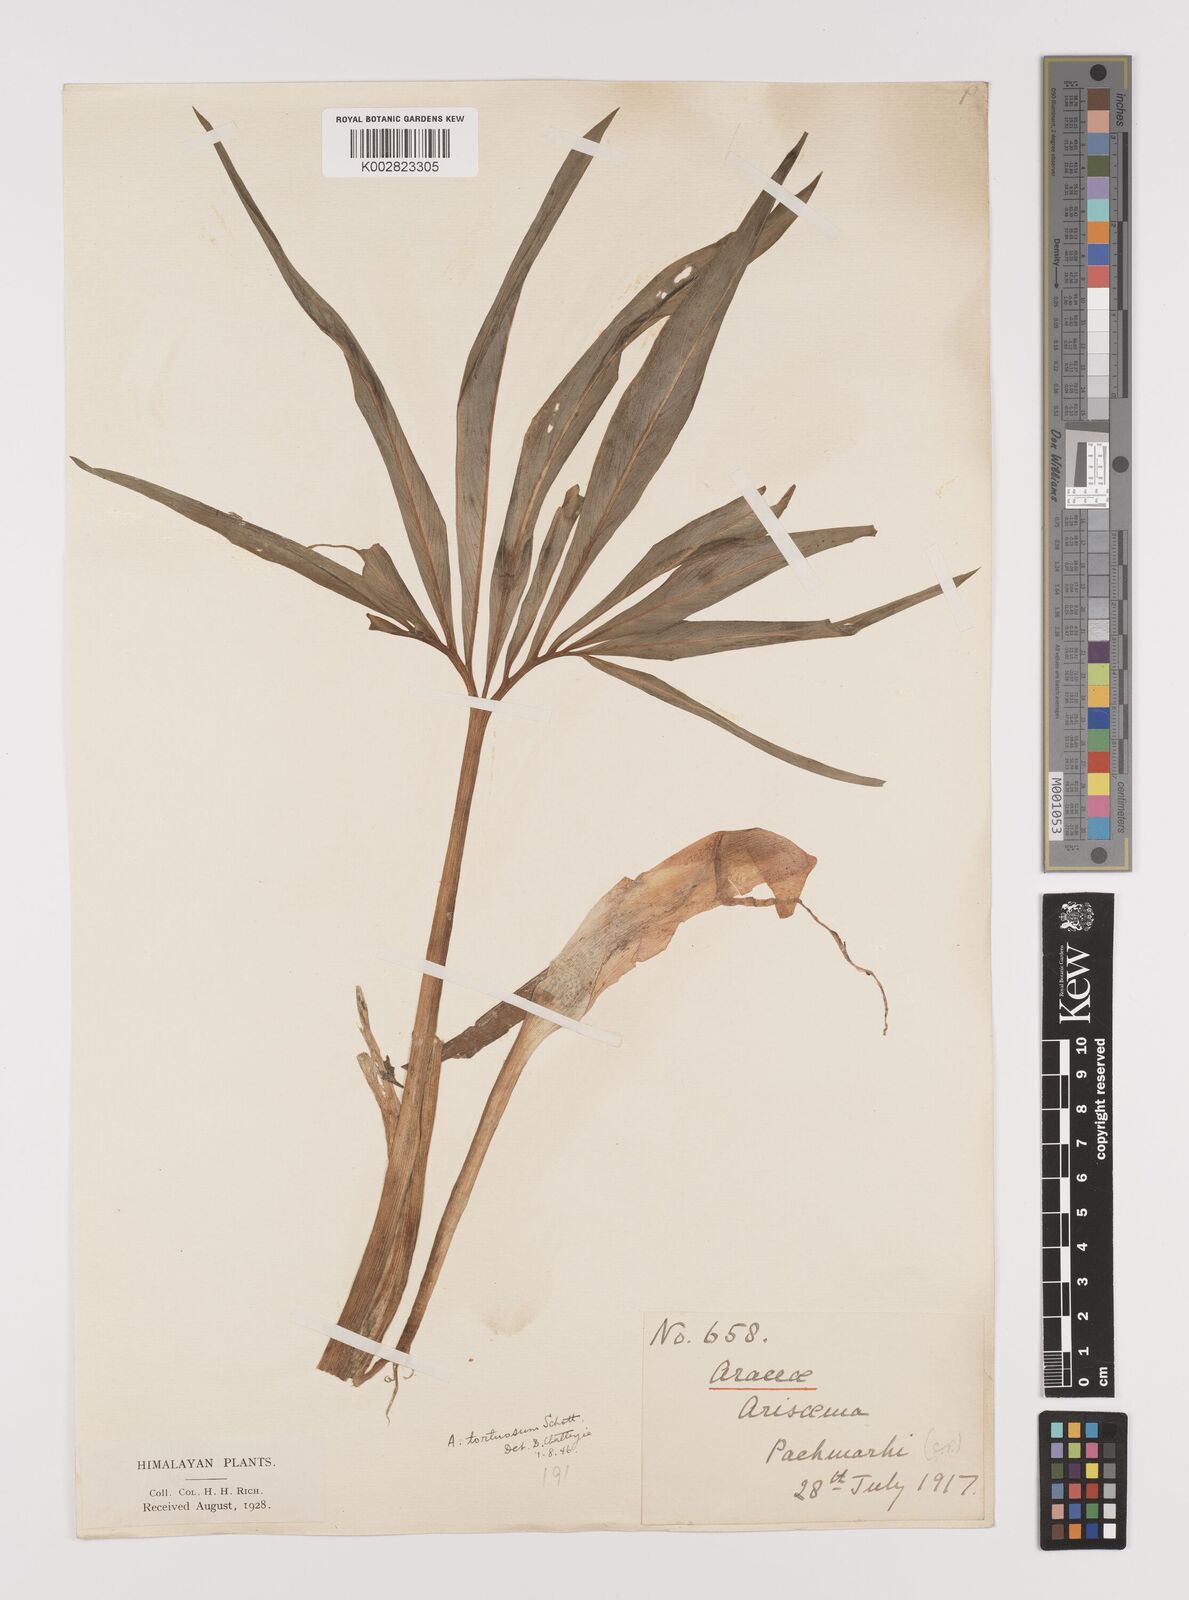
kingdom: Plantae
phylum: Tracheophyta
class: Liliopsida
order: Alismatales
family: Araceae
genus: Arisaema
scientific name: Arisaema tortuosum
